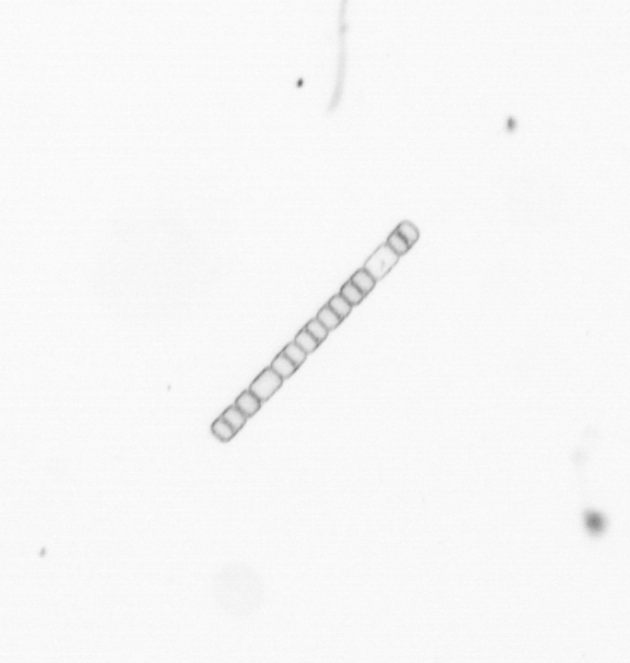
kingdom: Chromista
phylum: Ochrophyta
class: Bacillariophyceae
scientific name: Bacillariophyceae
